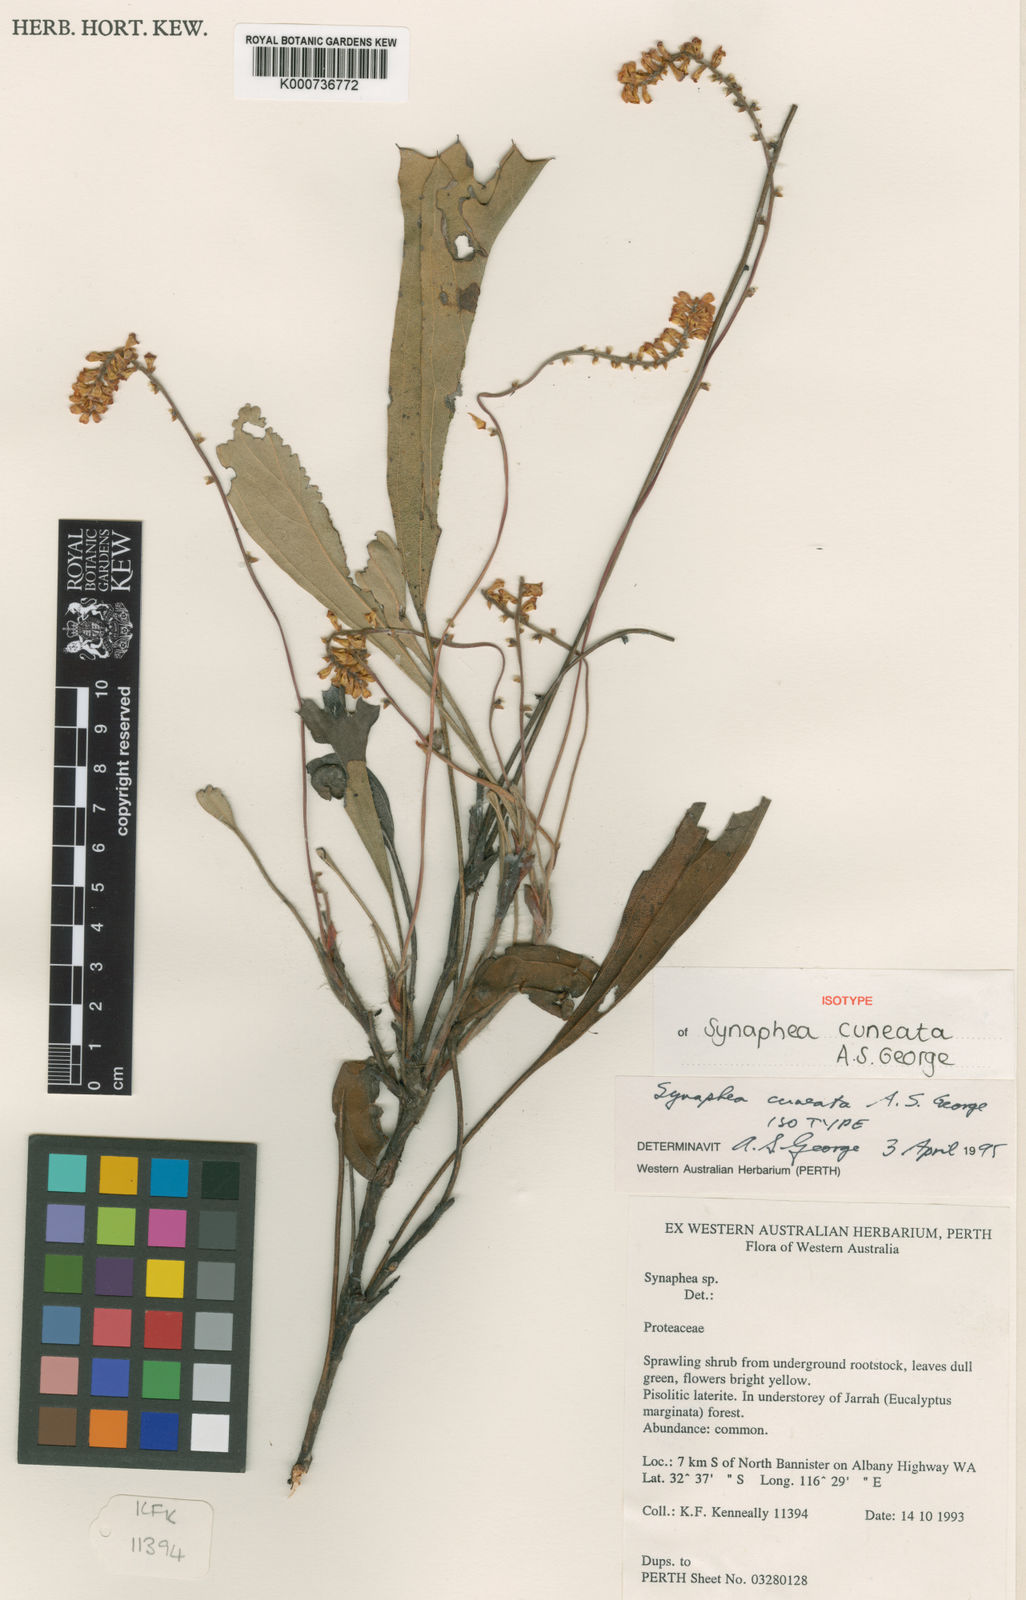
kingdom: Plantae
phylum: Tracheophyta
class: Magnoliopsida
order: Proteales
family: Proteaceae
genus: Synaphea
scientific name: Synaphea cuneata
